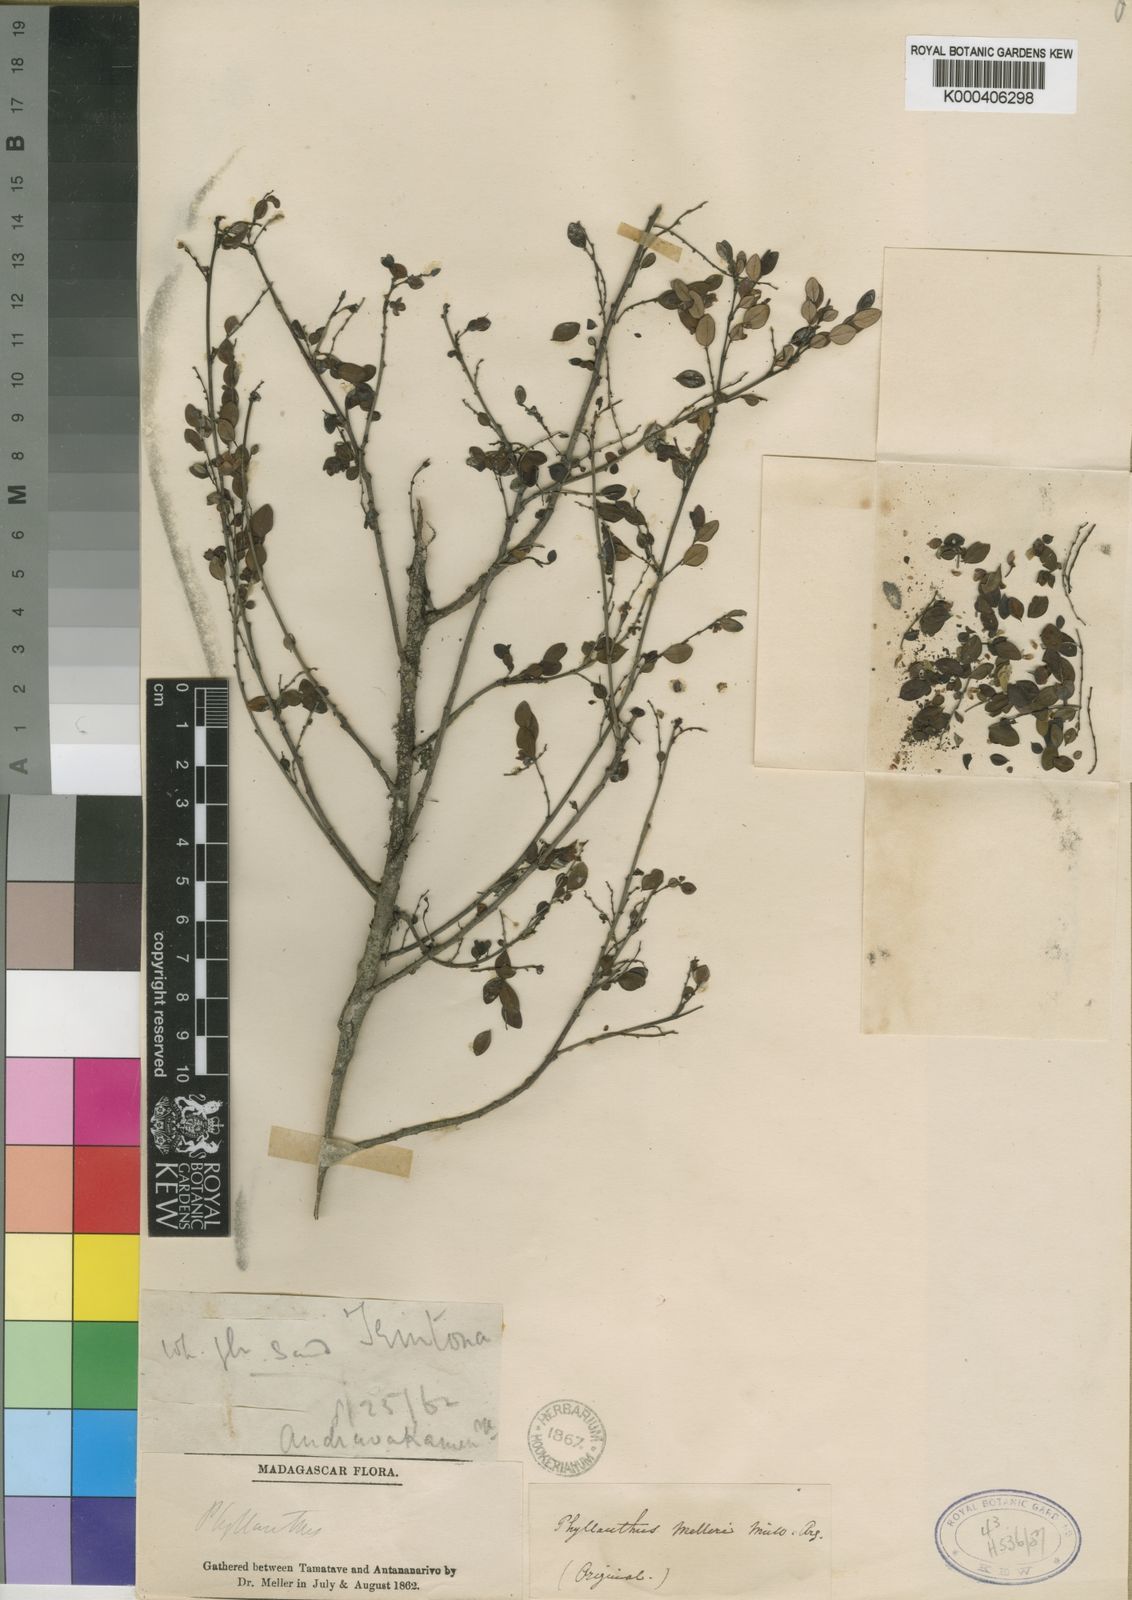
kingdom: Plantae
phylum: Tracheophyta
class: Magnoliopsida
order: Malpighiales
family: Phyllanthaceae
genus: Phyllanthus
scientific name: Phyllanthus
